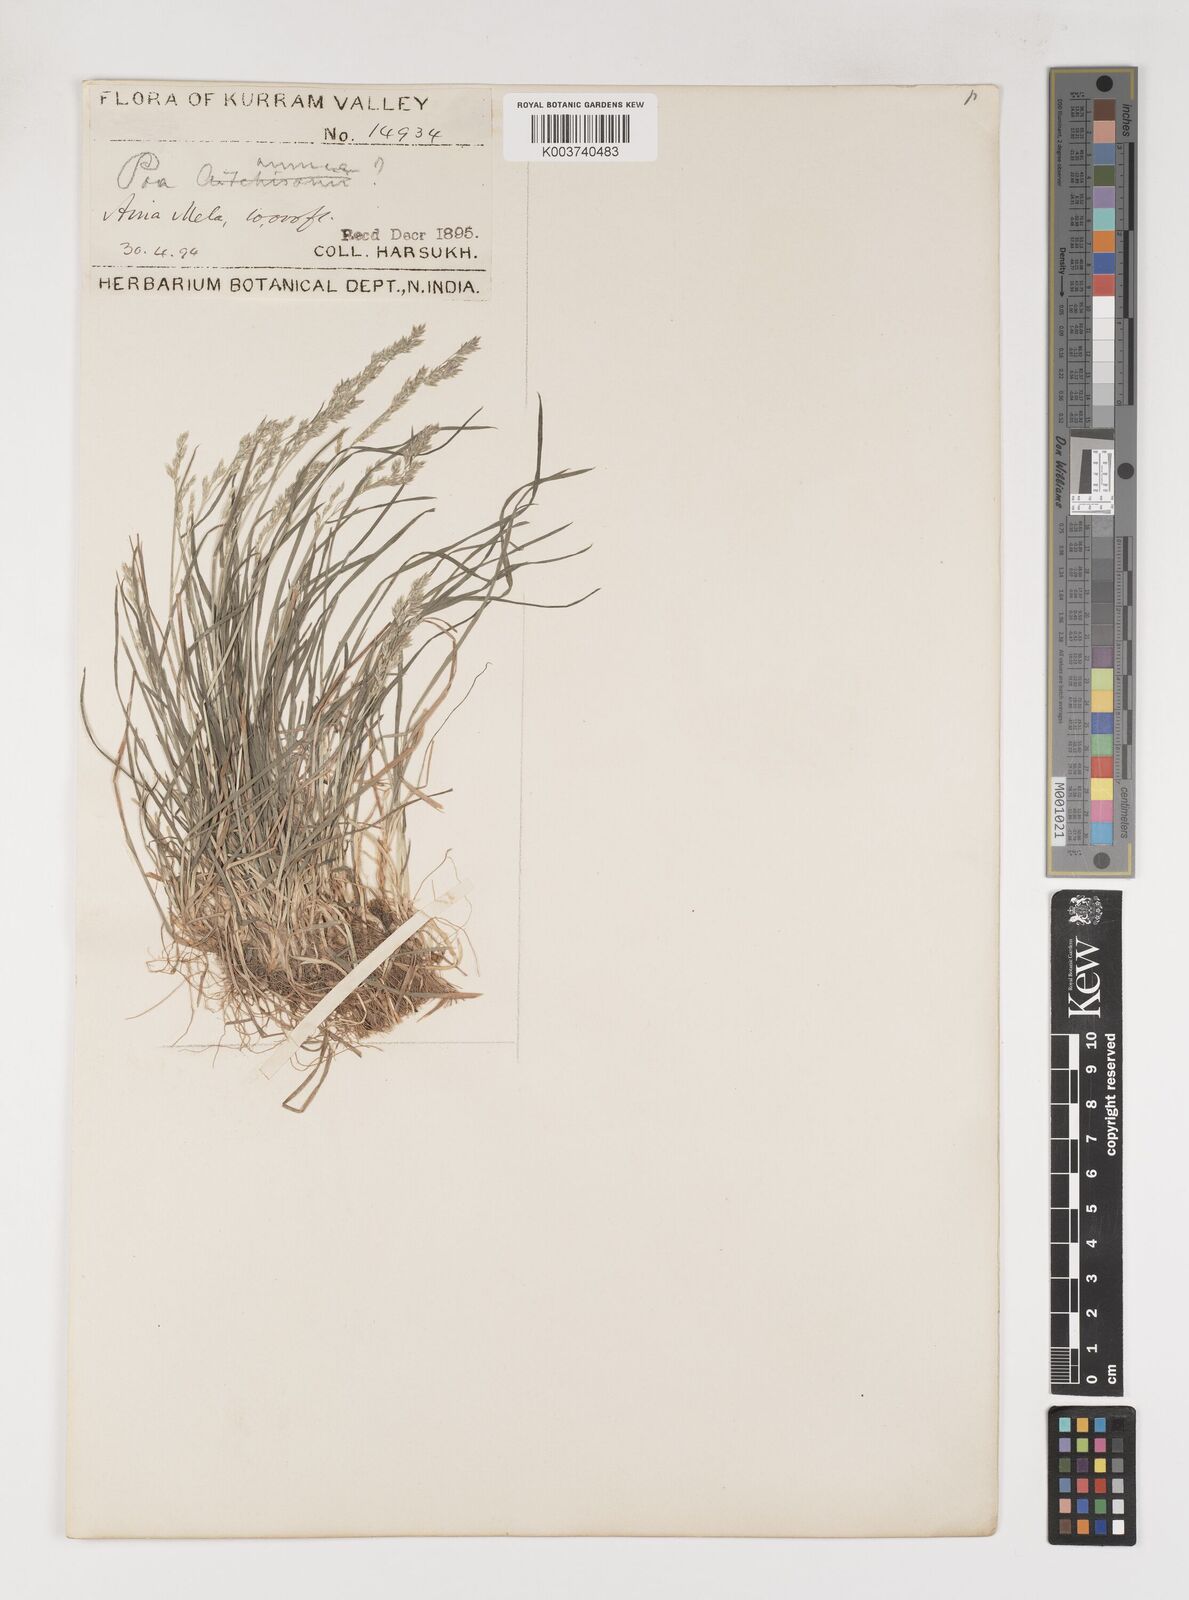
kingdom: Plantae
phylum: Tracheophyta
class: Liliopsida
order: Poales
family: Poaceae
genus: Poa
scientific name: Poa aitchisonii
